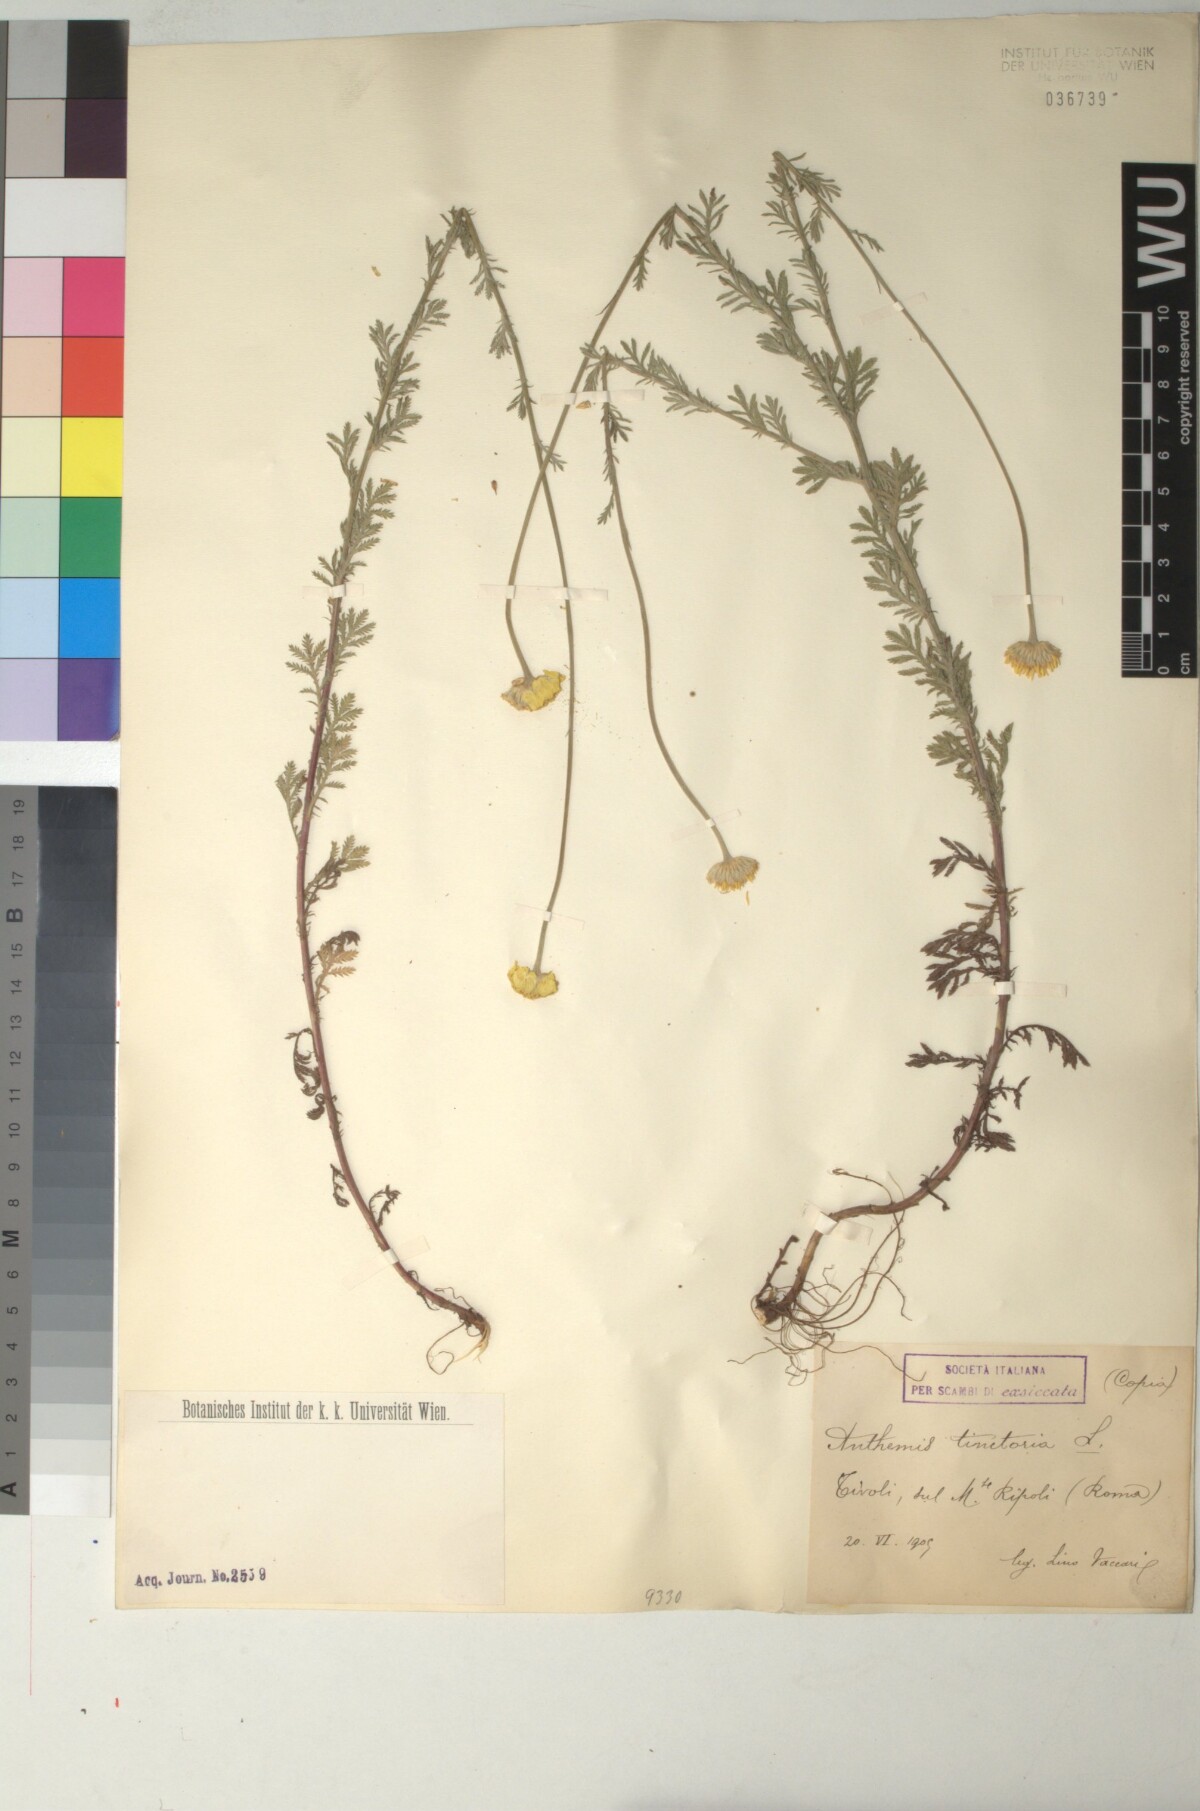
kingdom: Plantae
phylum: Tracheophyta
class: Magnoliopsida
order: Asterales
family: Asteraceae
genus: Cota
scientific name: Cota tinctoria
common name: Golden chamomile
